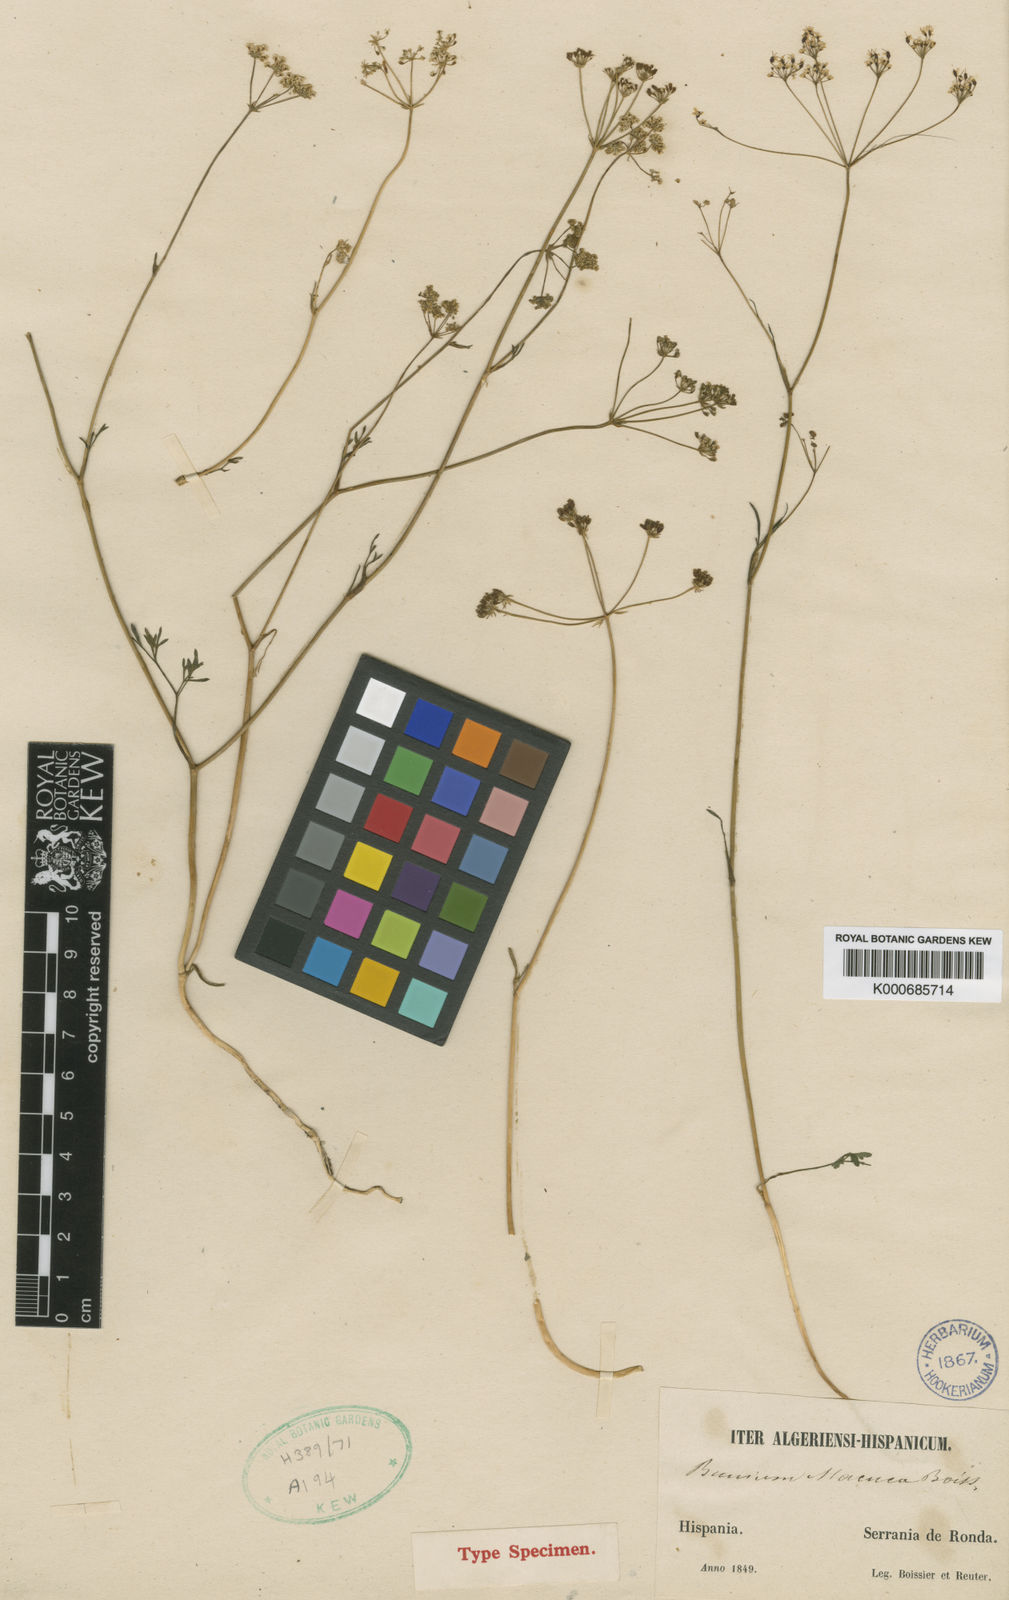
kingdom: Plantae
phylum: Tracheophyta
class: Magnoliopsida
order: Apiales
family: Apiaceae
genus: Bunium
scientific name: Bunium alpinum
